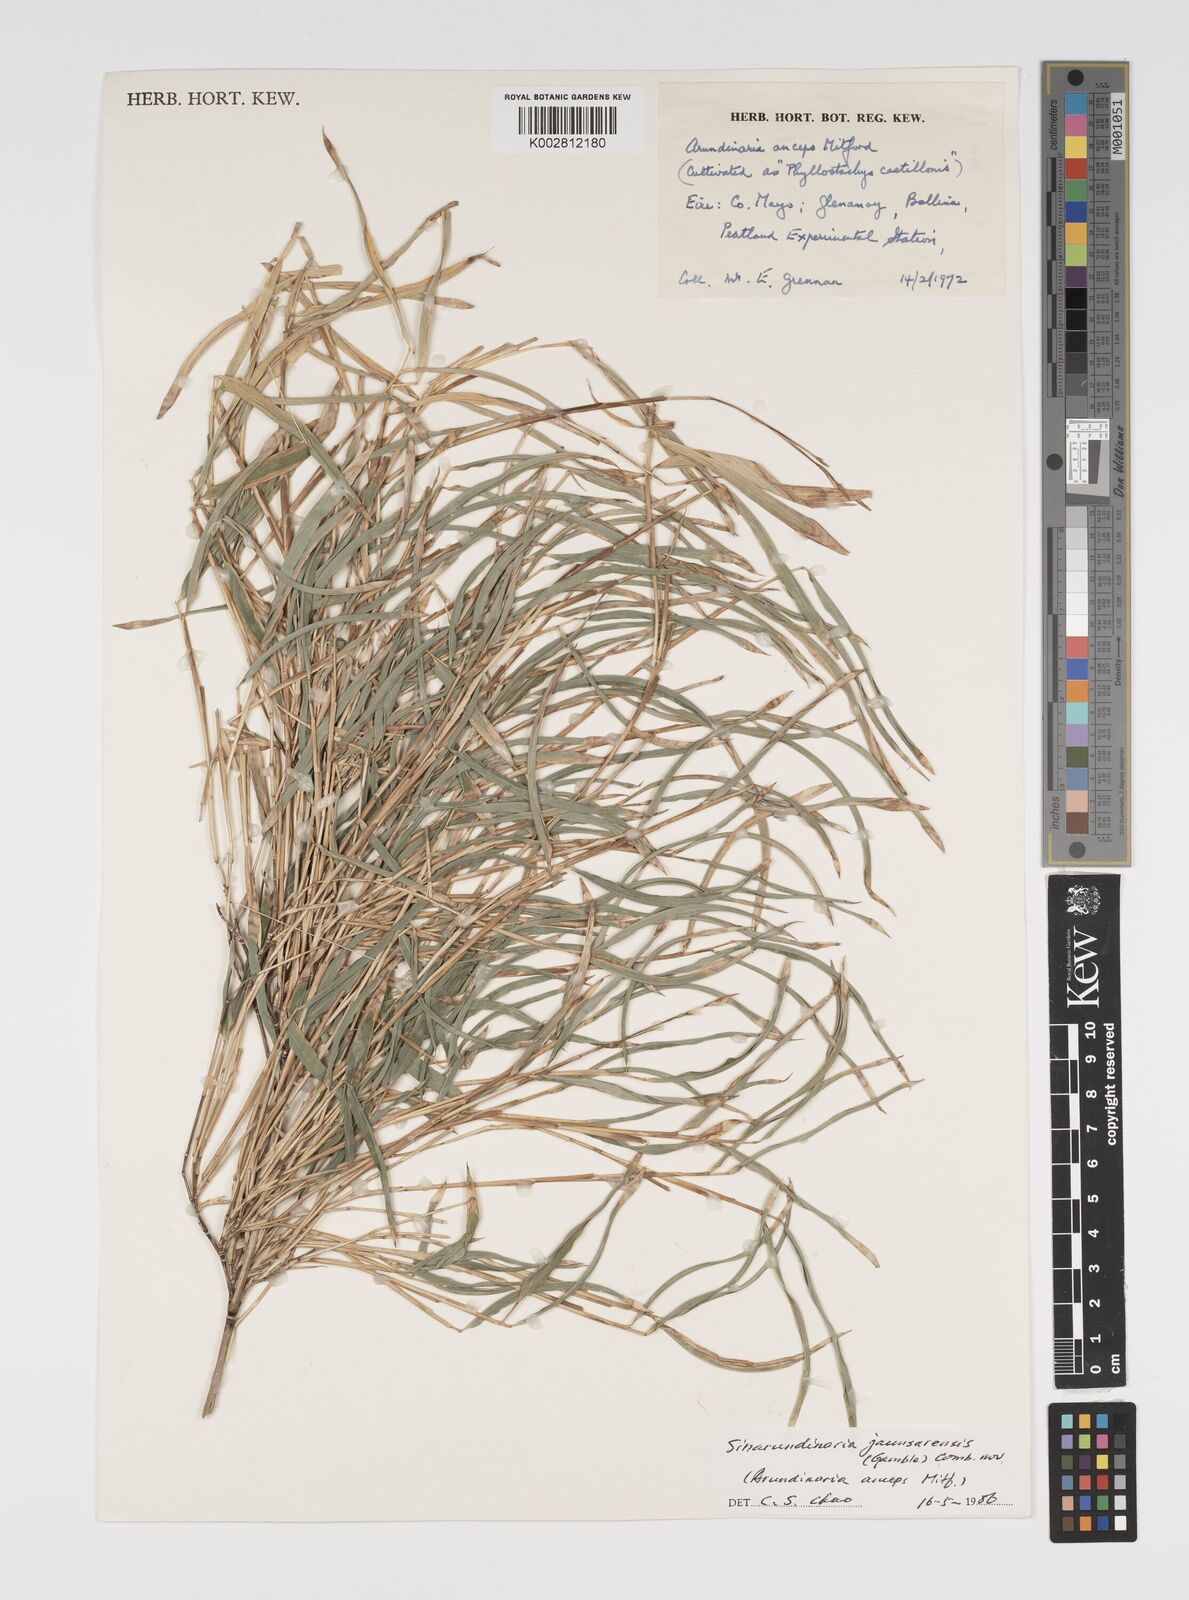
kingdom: Plantae
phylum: Tracheophyta
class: Liliopsida
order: Poales
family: Poaceae
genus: Yushania
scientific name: Yushania anceps
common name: Indian fountain-bamboo
